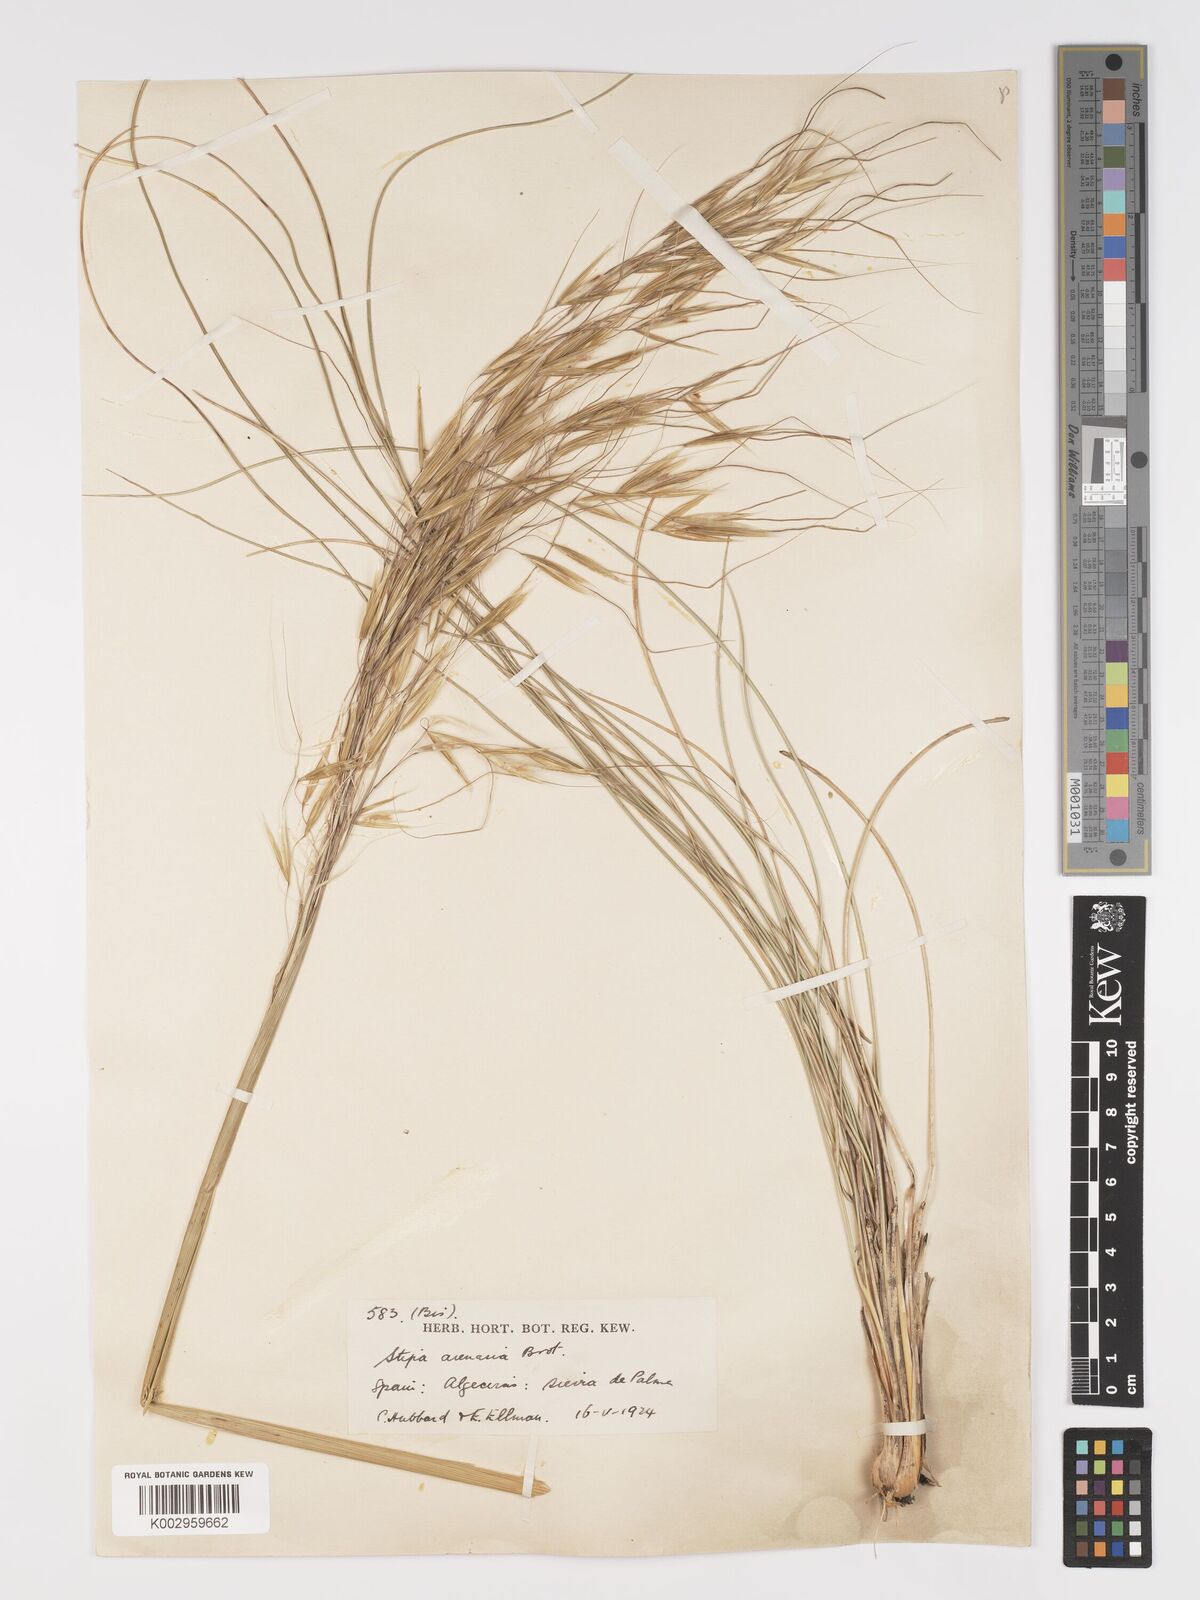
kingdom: Plantae
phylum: Tracheophyta
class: Liliopsida
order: Poales
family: Poaceae
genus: Celtica
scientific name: Celtica gigantea
